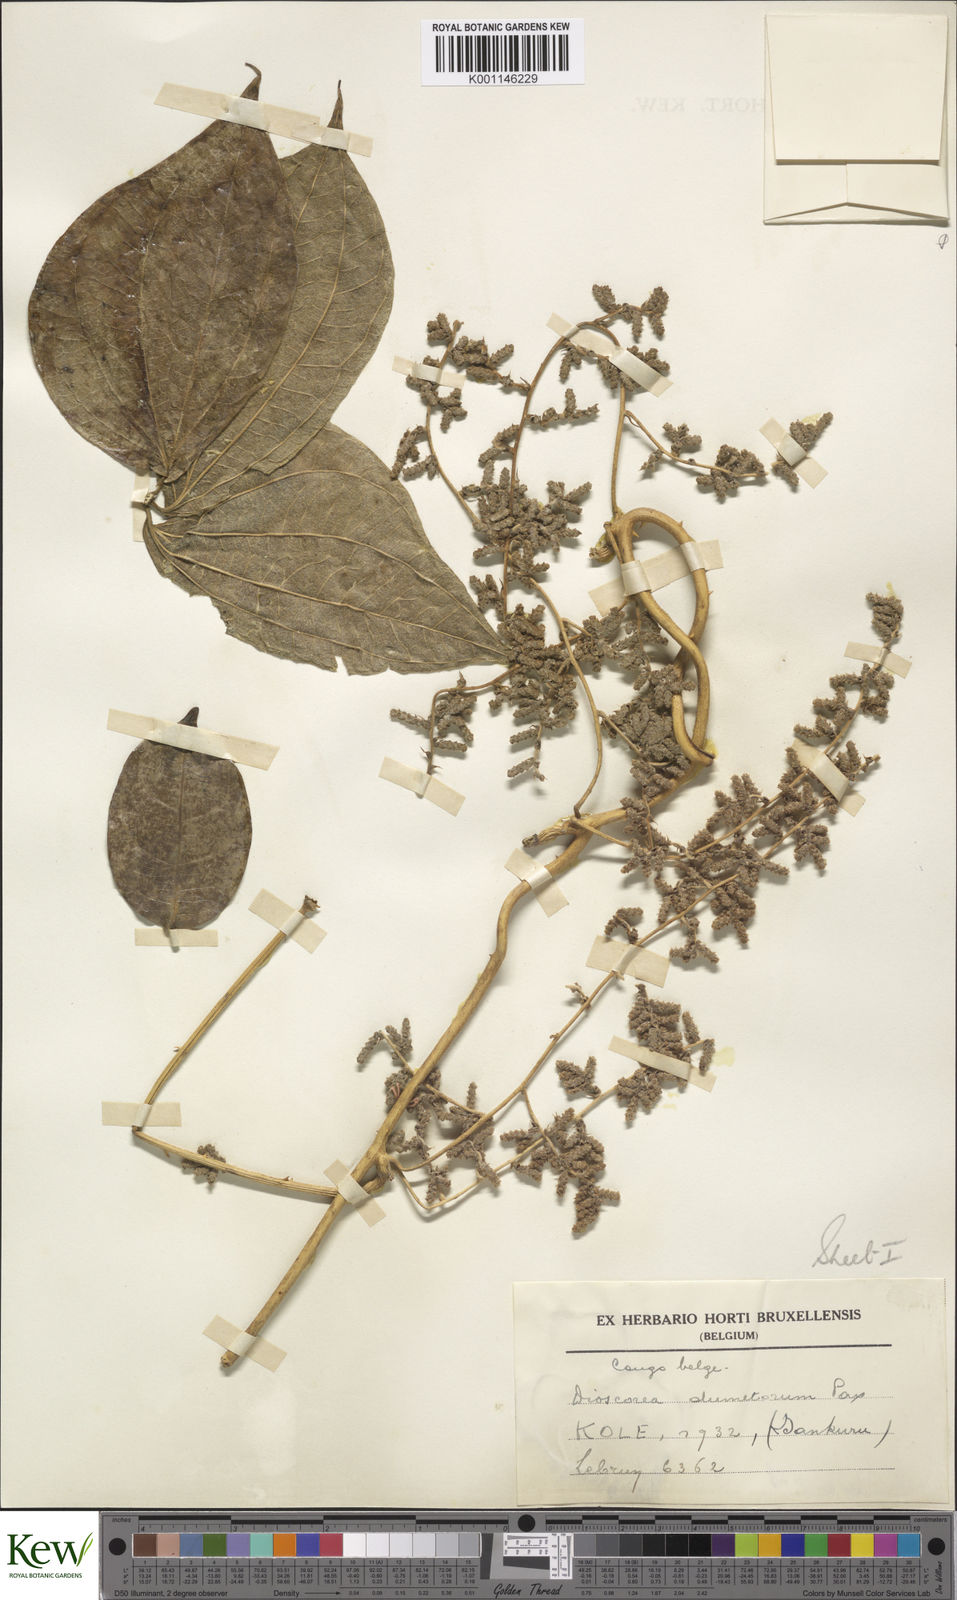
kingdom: Plantae
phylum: Tracheophyta
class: Liliopsida
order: Dioscoreales
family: Dioscoreaceae
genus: Dioscorea
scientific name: Dioscorea dumetorum
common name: African bitter yam
